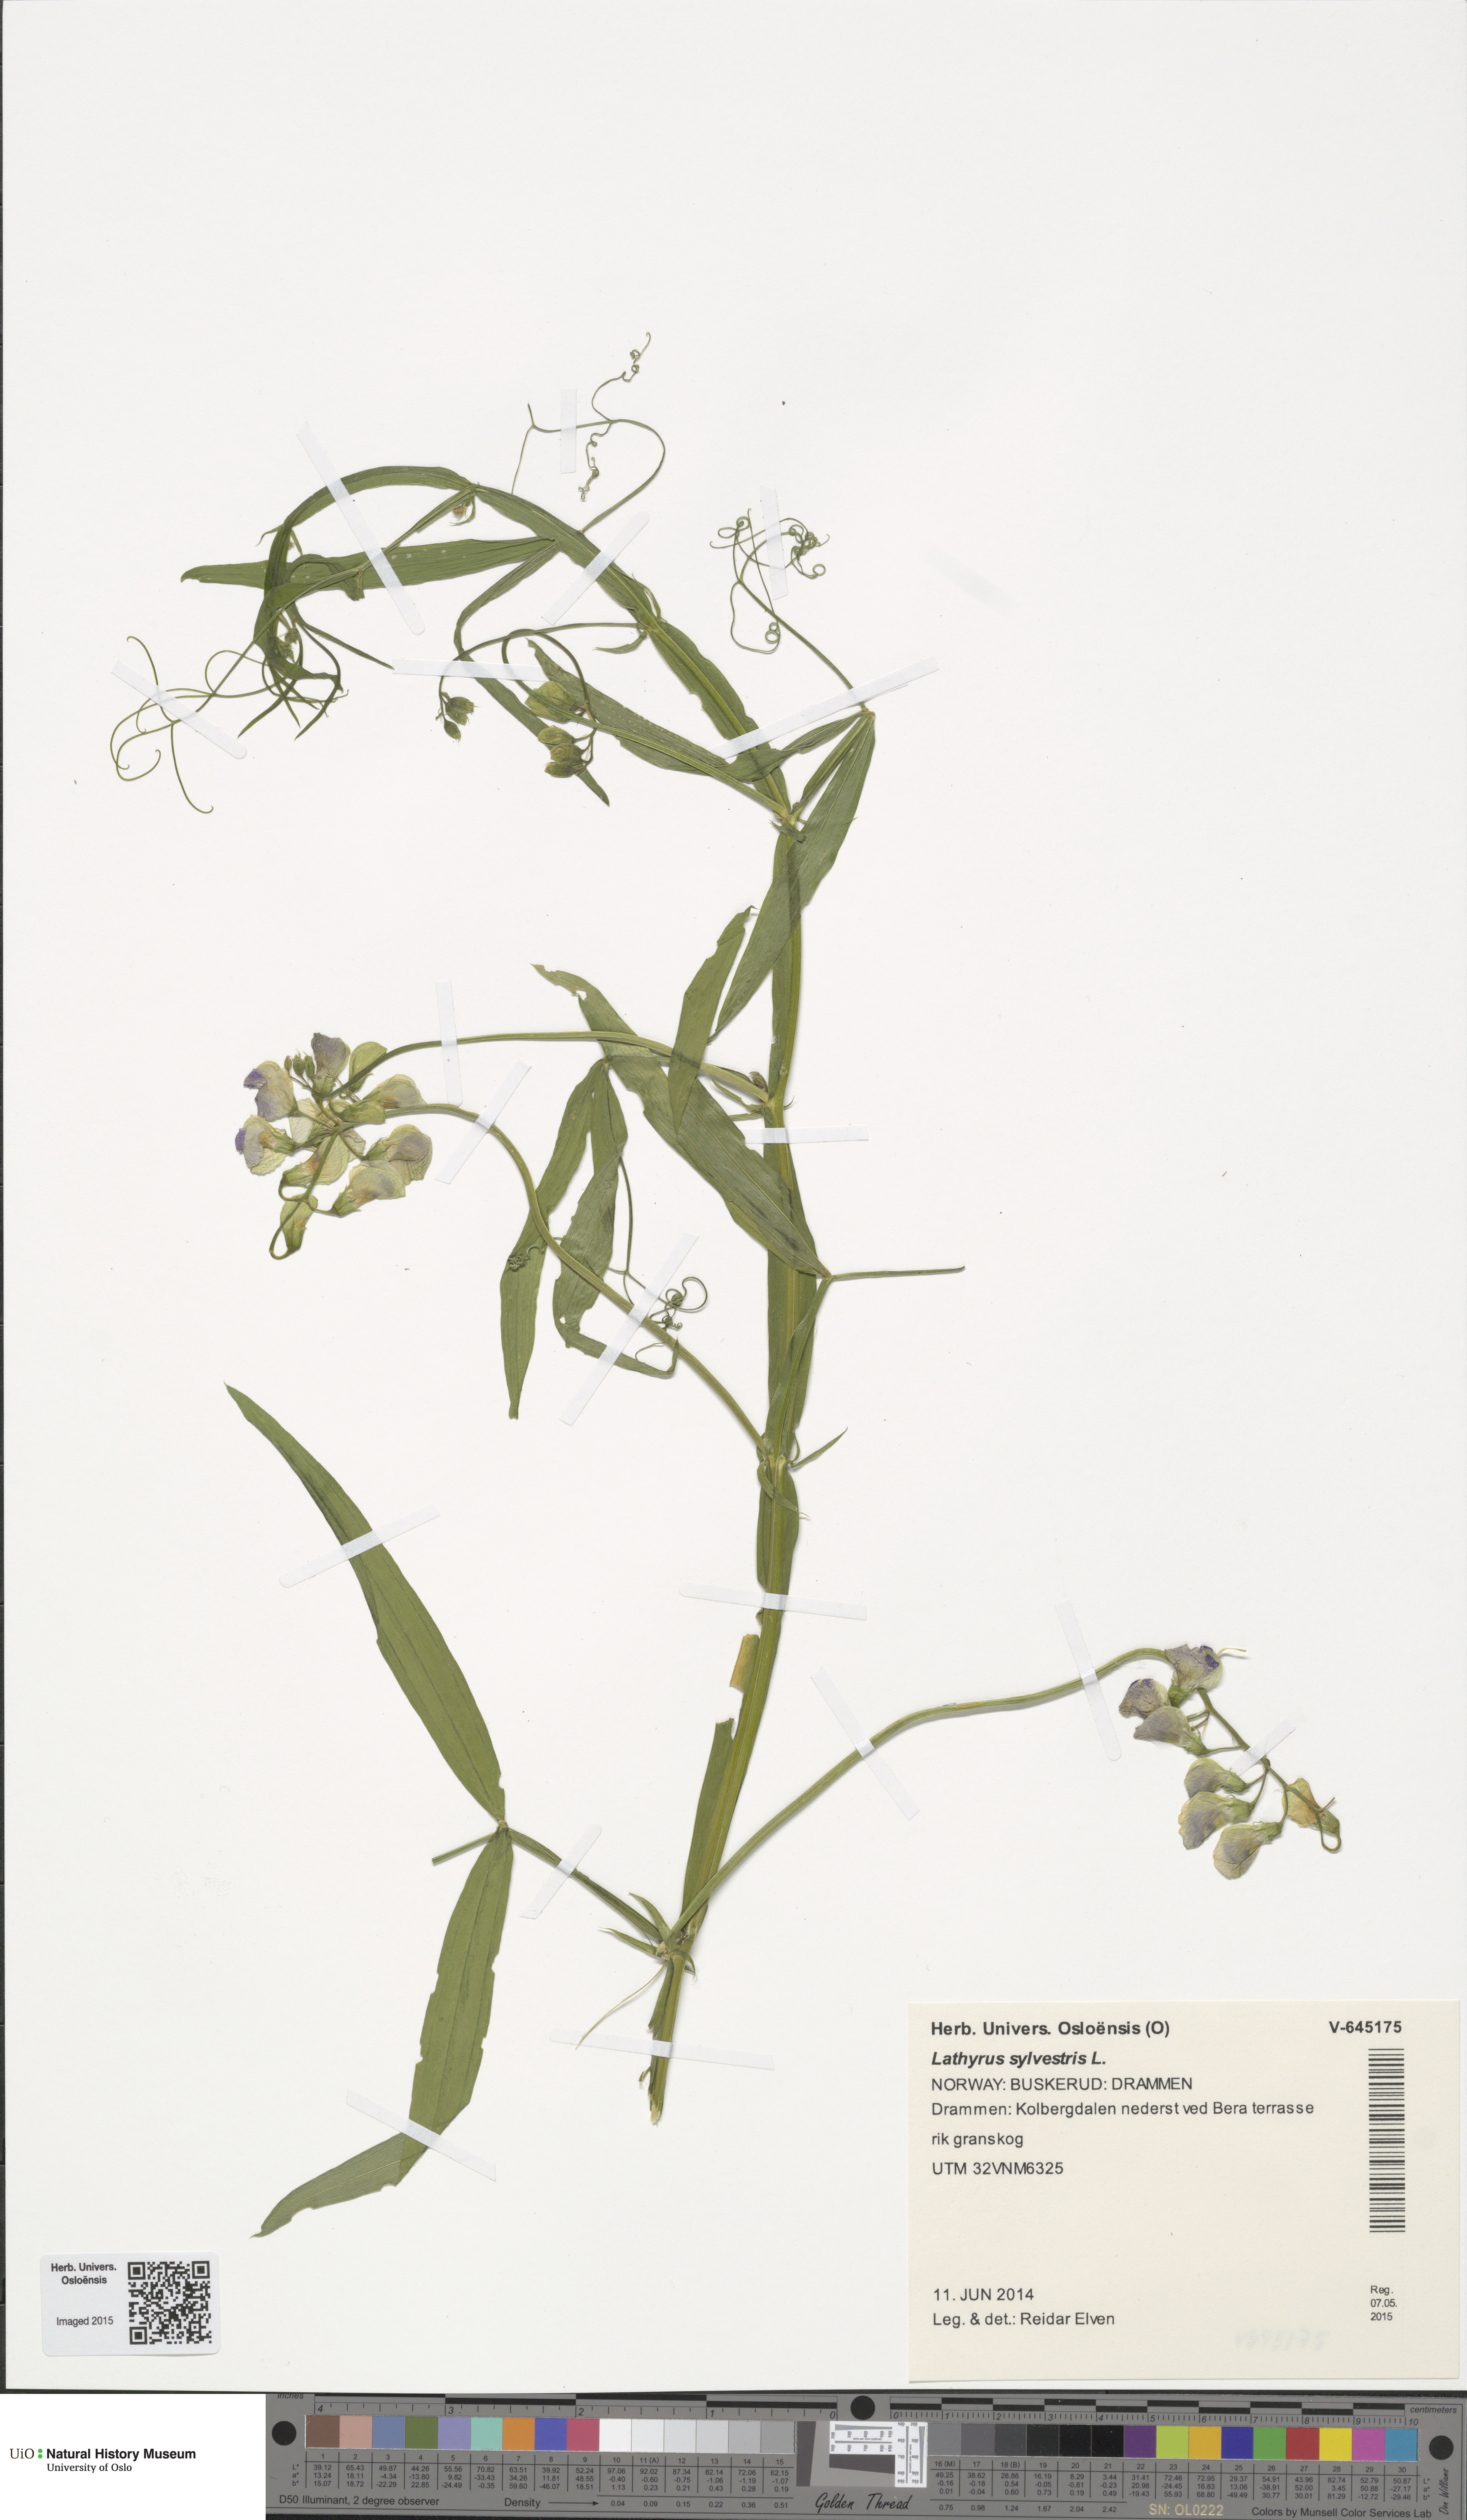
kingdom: Plantae
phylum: Tracheophyta
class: Magnoliopsida
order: Fabales
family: Fabaceae
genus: Lathyrus
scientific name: Lathyrus sylvestris
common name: Flat pea
